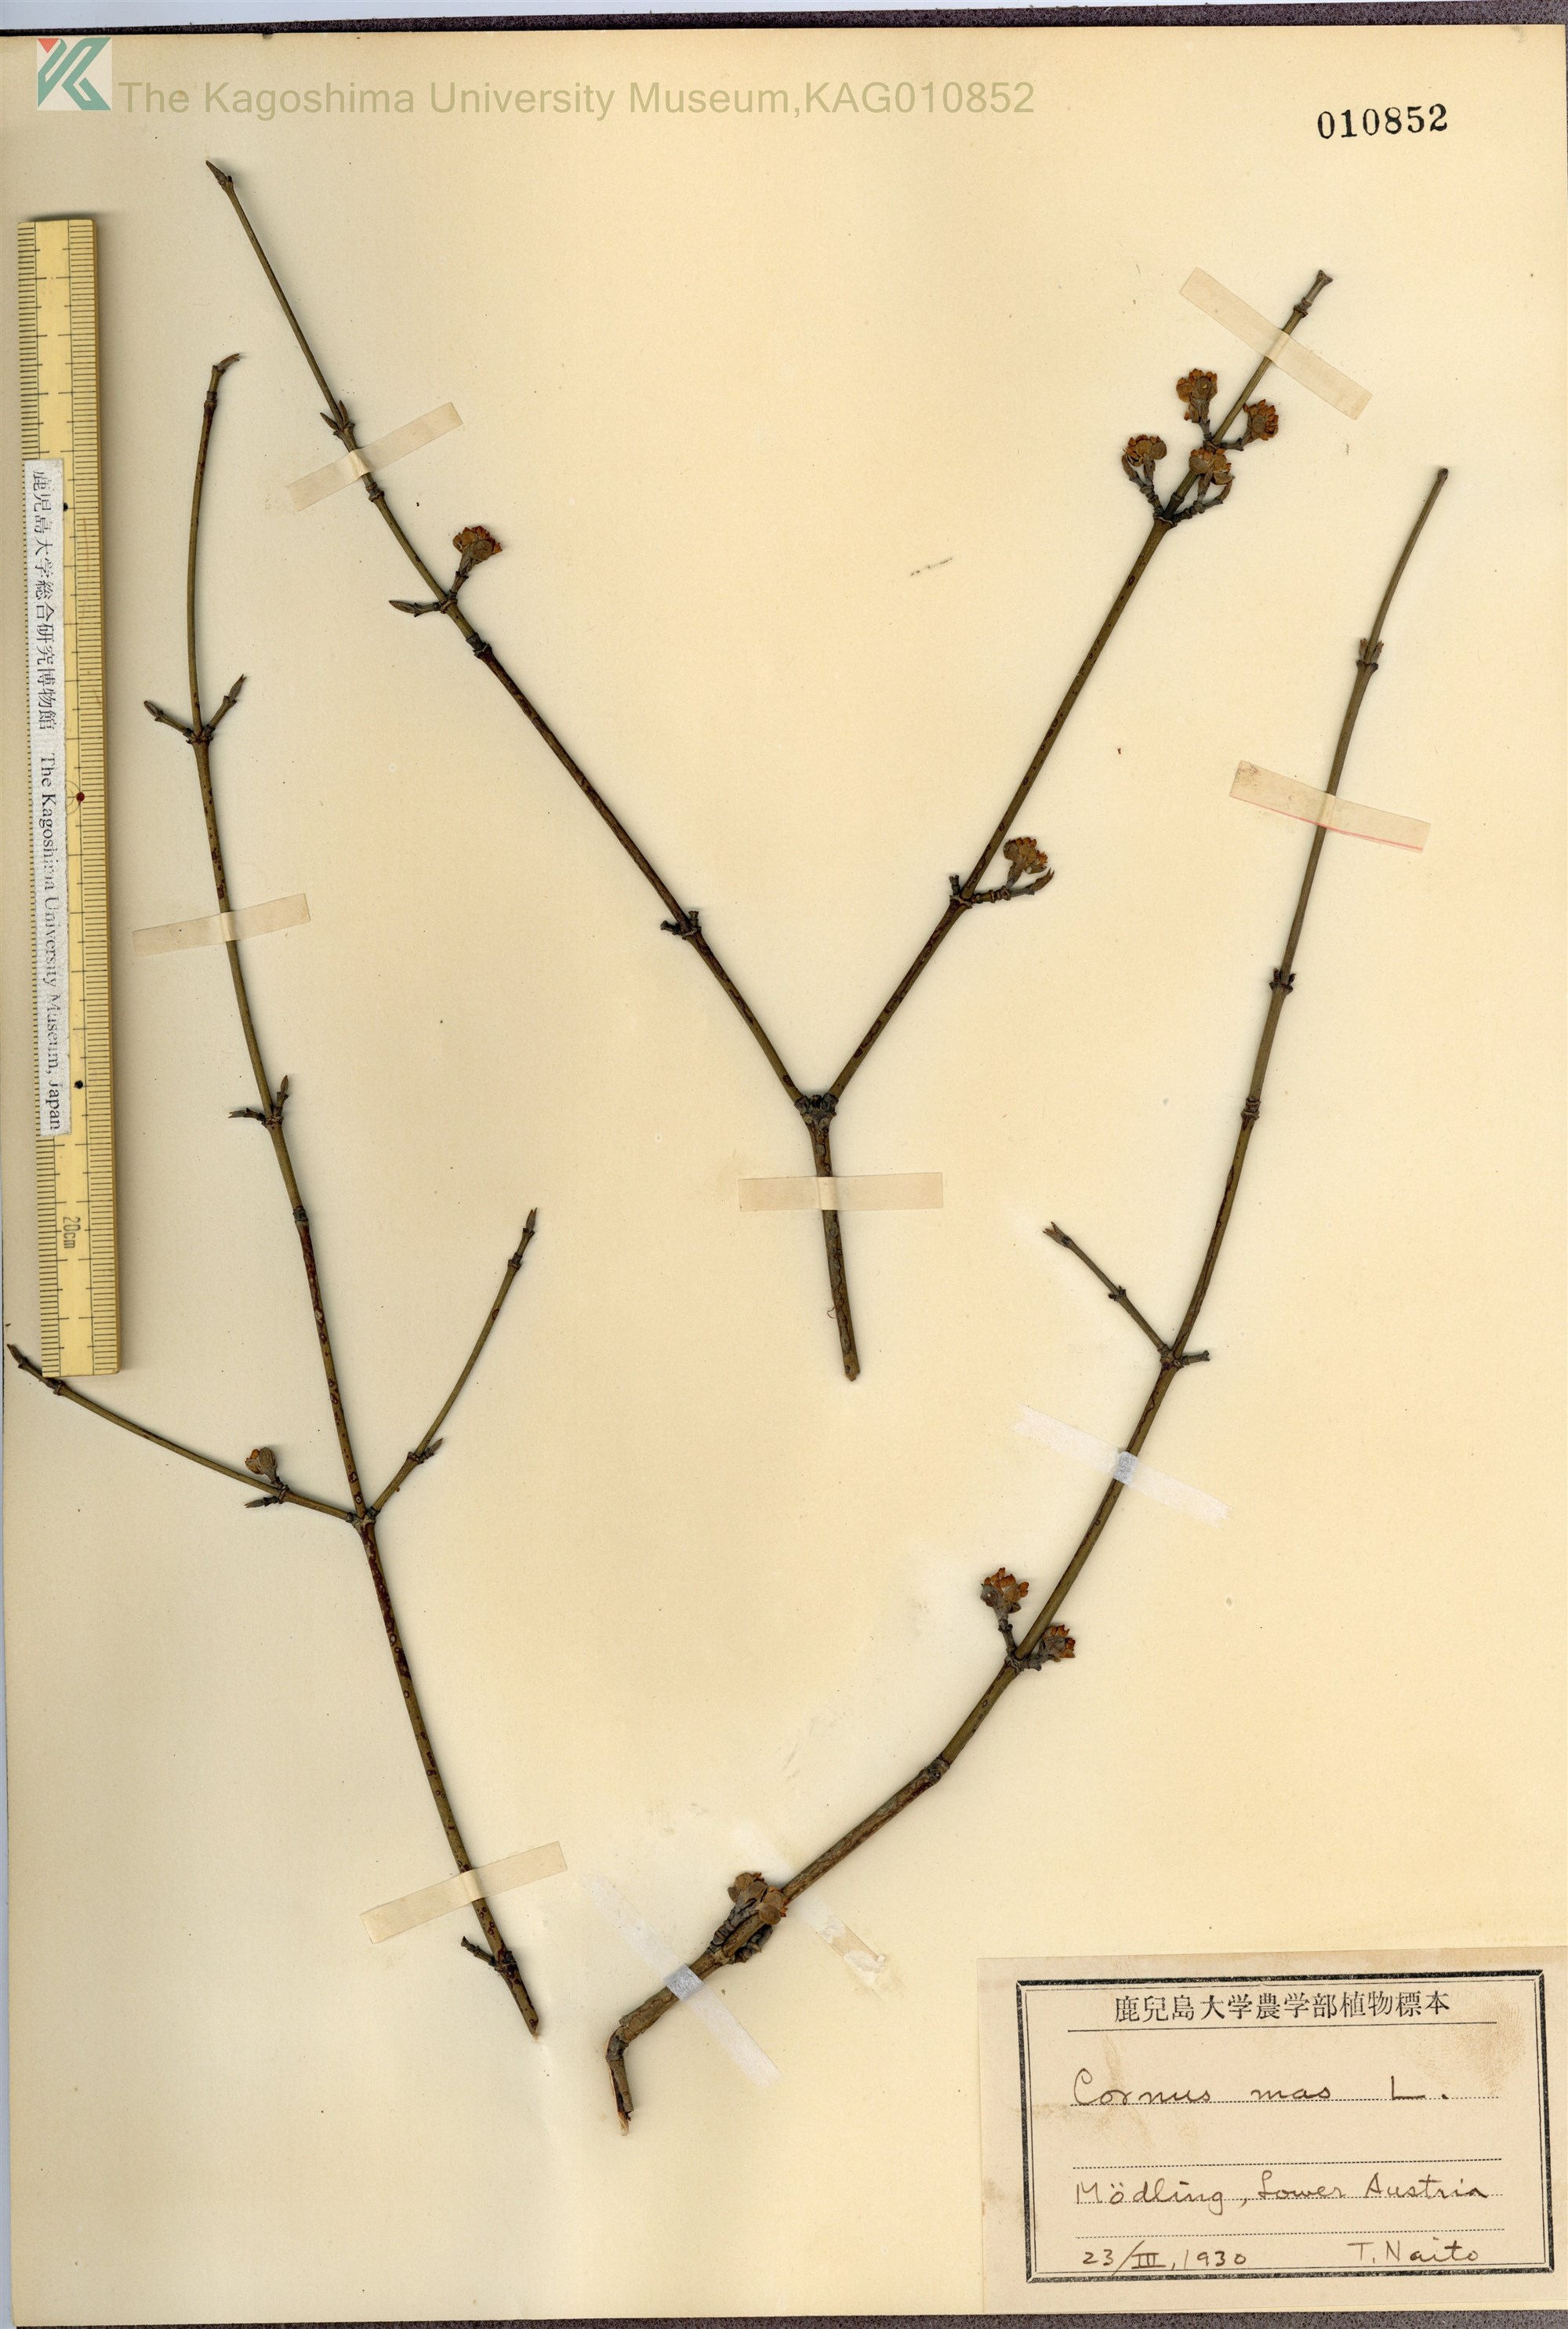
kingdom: Plantae
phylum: Tracheophyta
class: Magnoliopsida
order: Cornales
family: Cornaceae
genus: Cornus
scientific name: Cornus mas
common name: Cornelian-cherry
